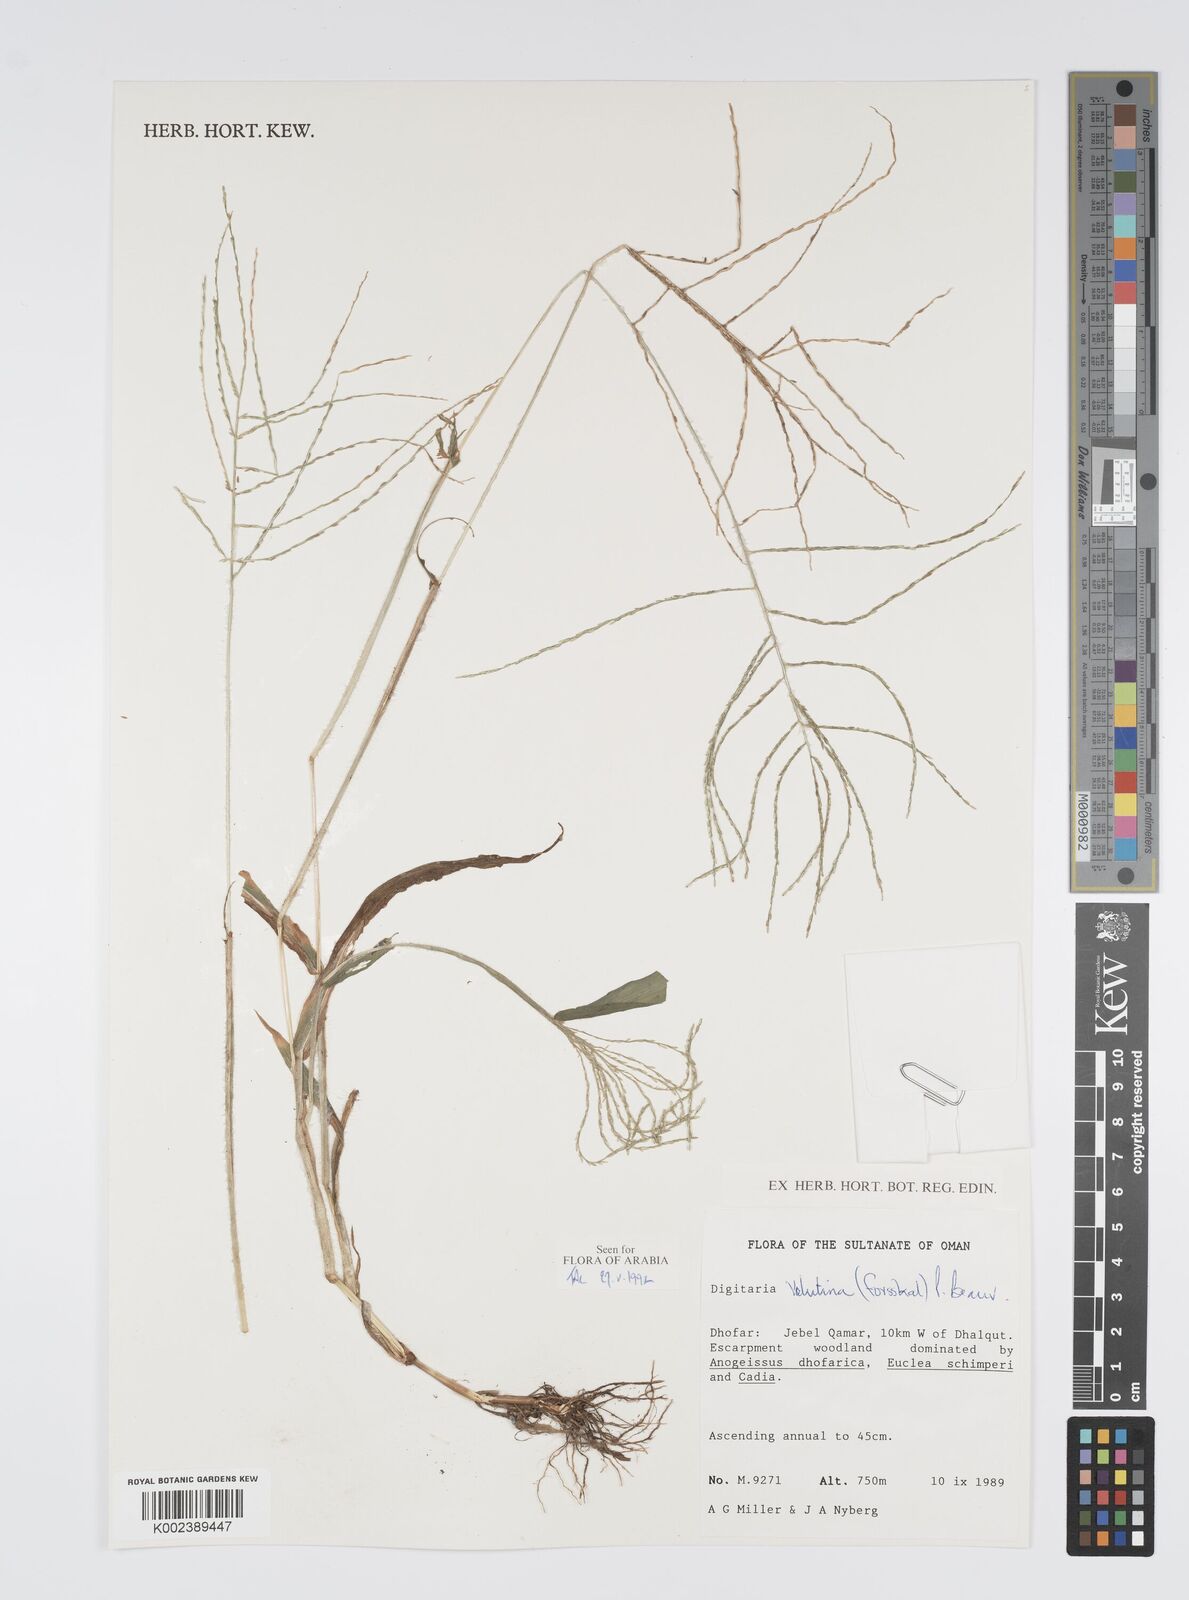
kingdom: Plantae
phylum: Tracheophyta
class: Liliopsida
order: Poales
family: Poaceae
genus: Digitaria
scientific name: Digitaria velutina
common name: Long-plume finger grass
